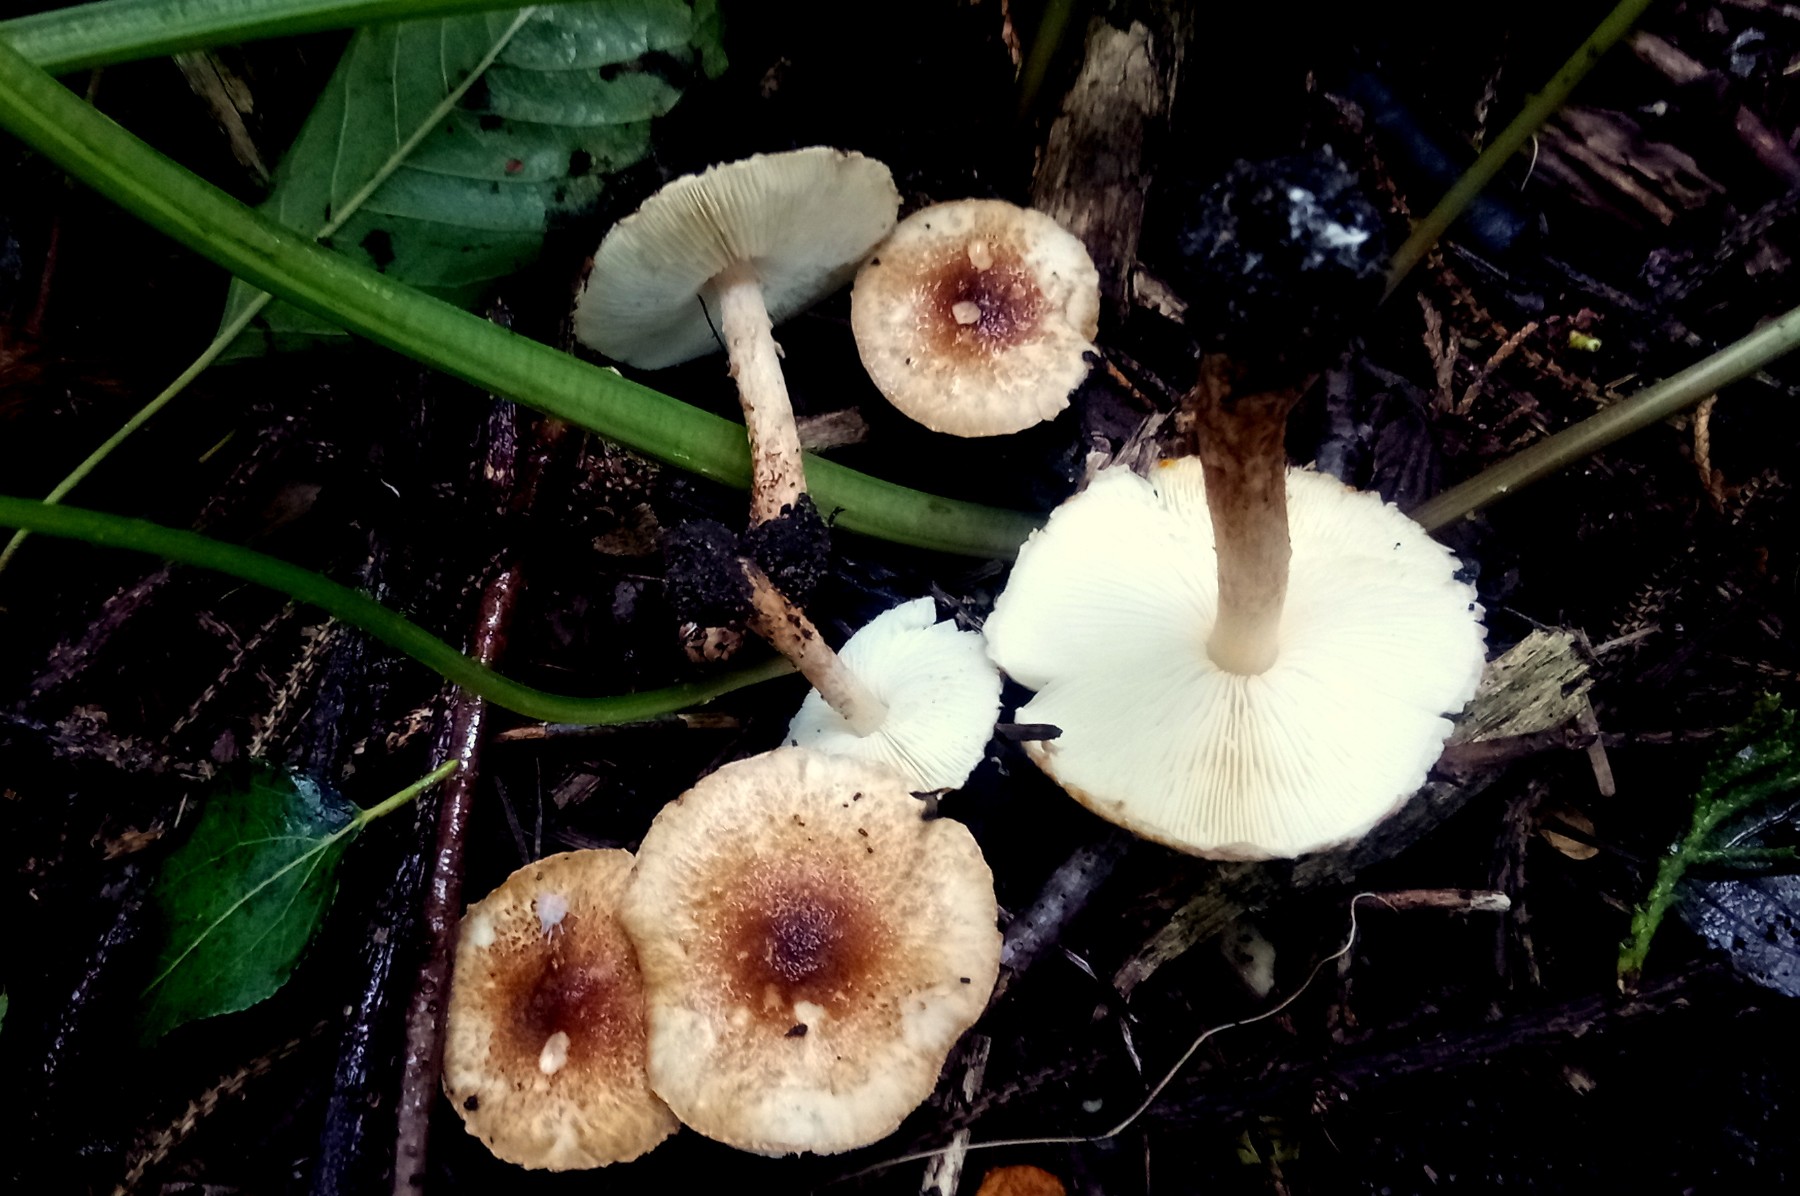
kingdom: Fungi
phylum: Basidiomycota
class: Agaricomycetes
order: Agaricales
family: Agaricaceae
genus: Lepiota
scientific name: Lepiota castanea
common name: kastaniebrun parasolhat
